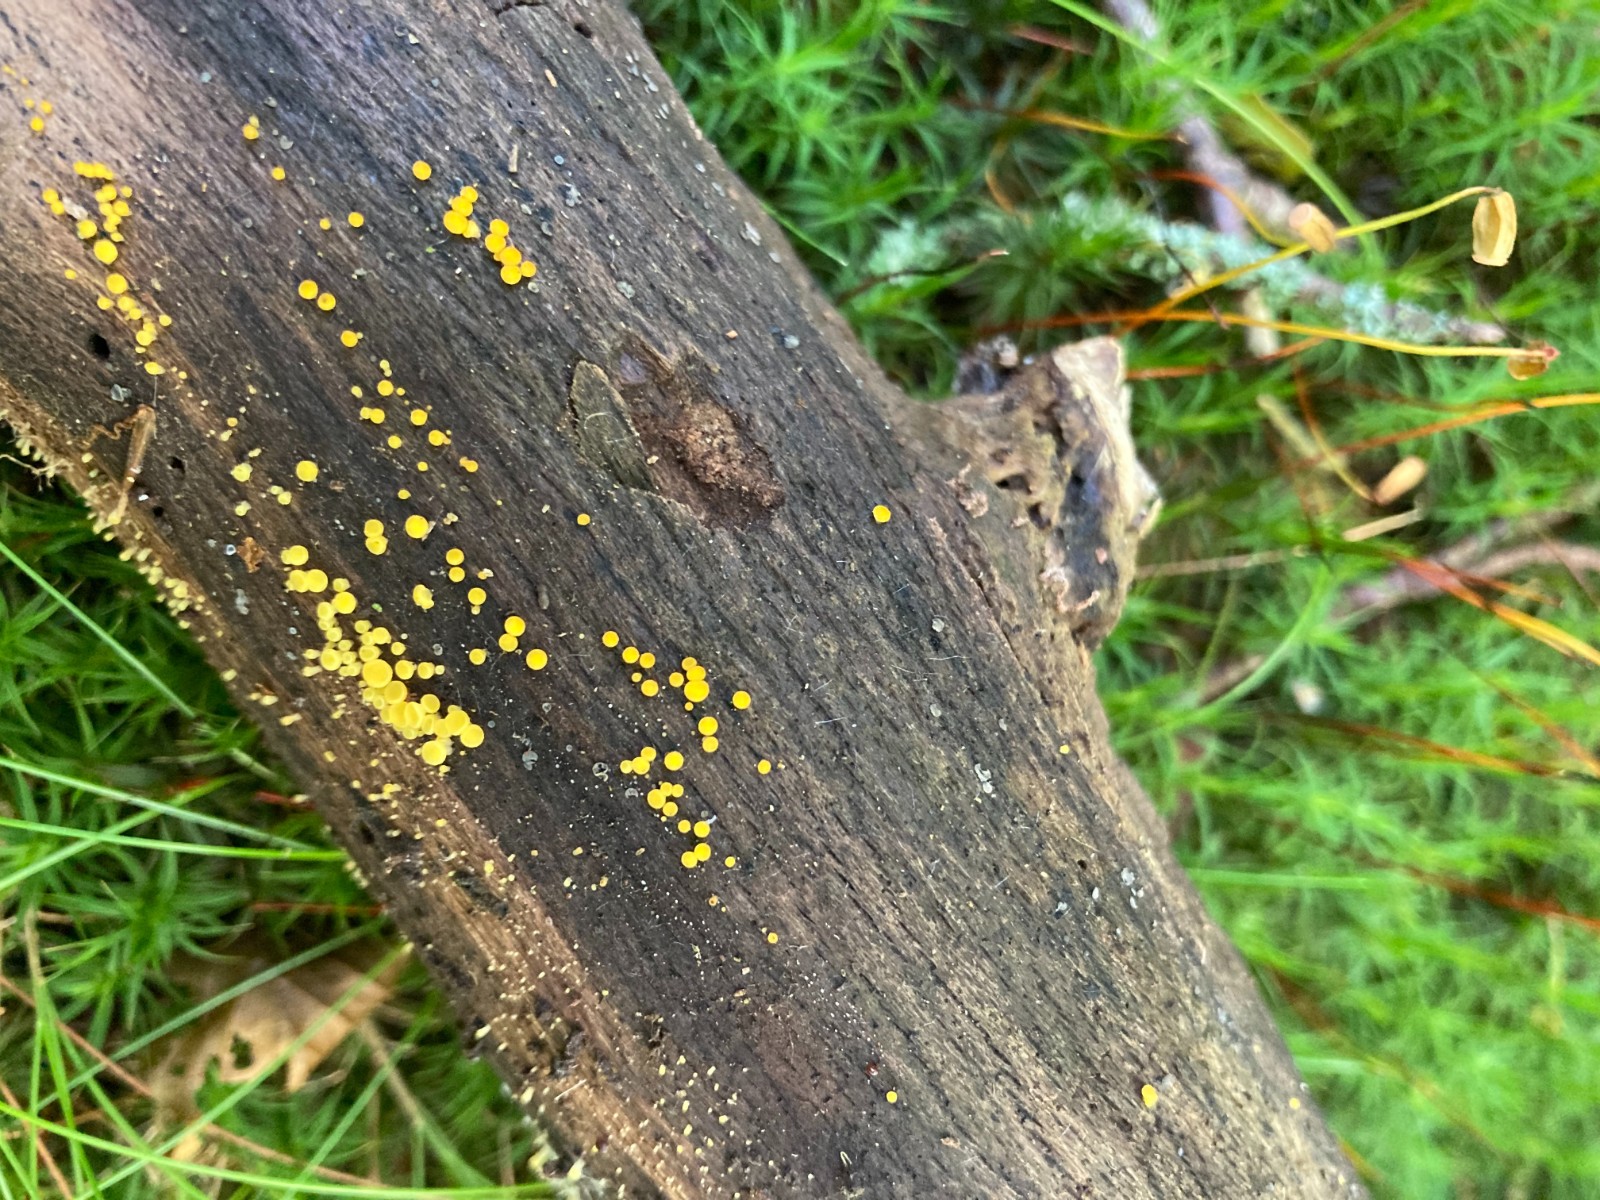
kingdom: Fungi
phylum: Ascomycota
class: Leotiomycetes
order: Helotiales
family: Pezizellaceae
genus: Calycina
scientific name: Calycina citrina
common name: almindelig gulskive
